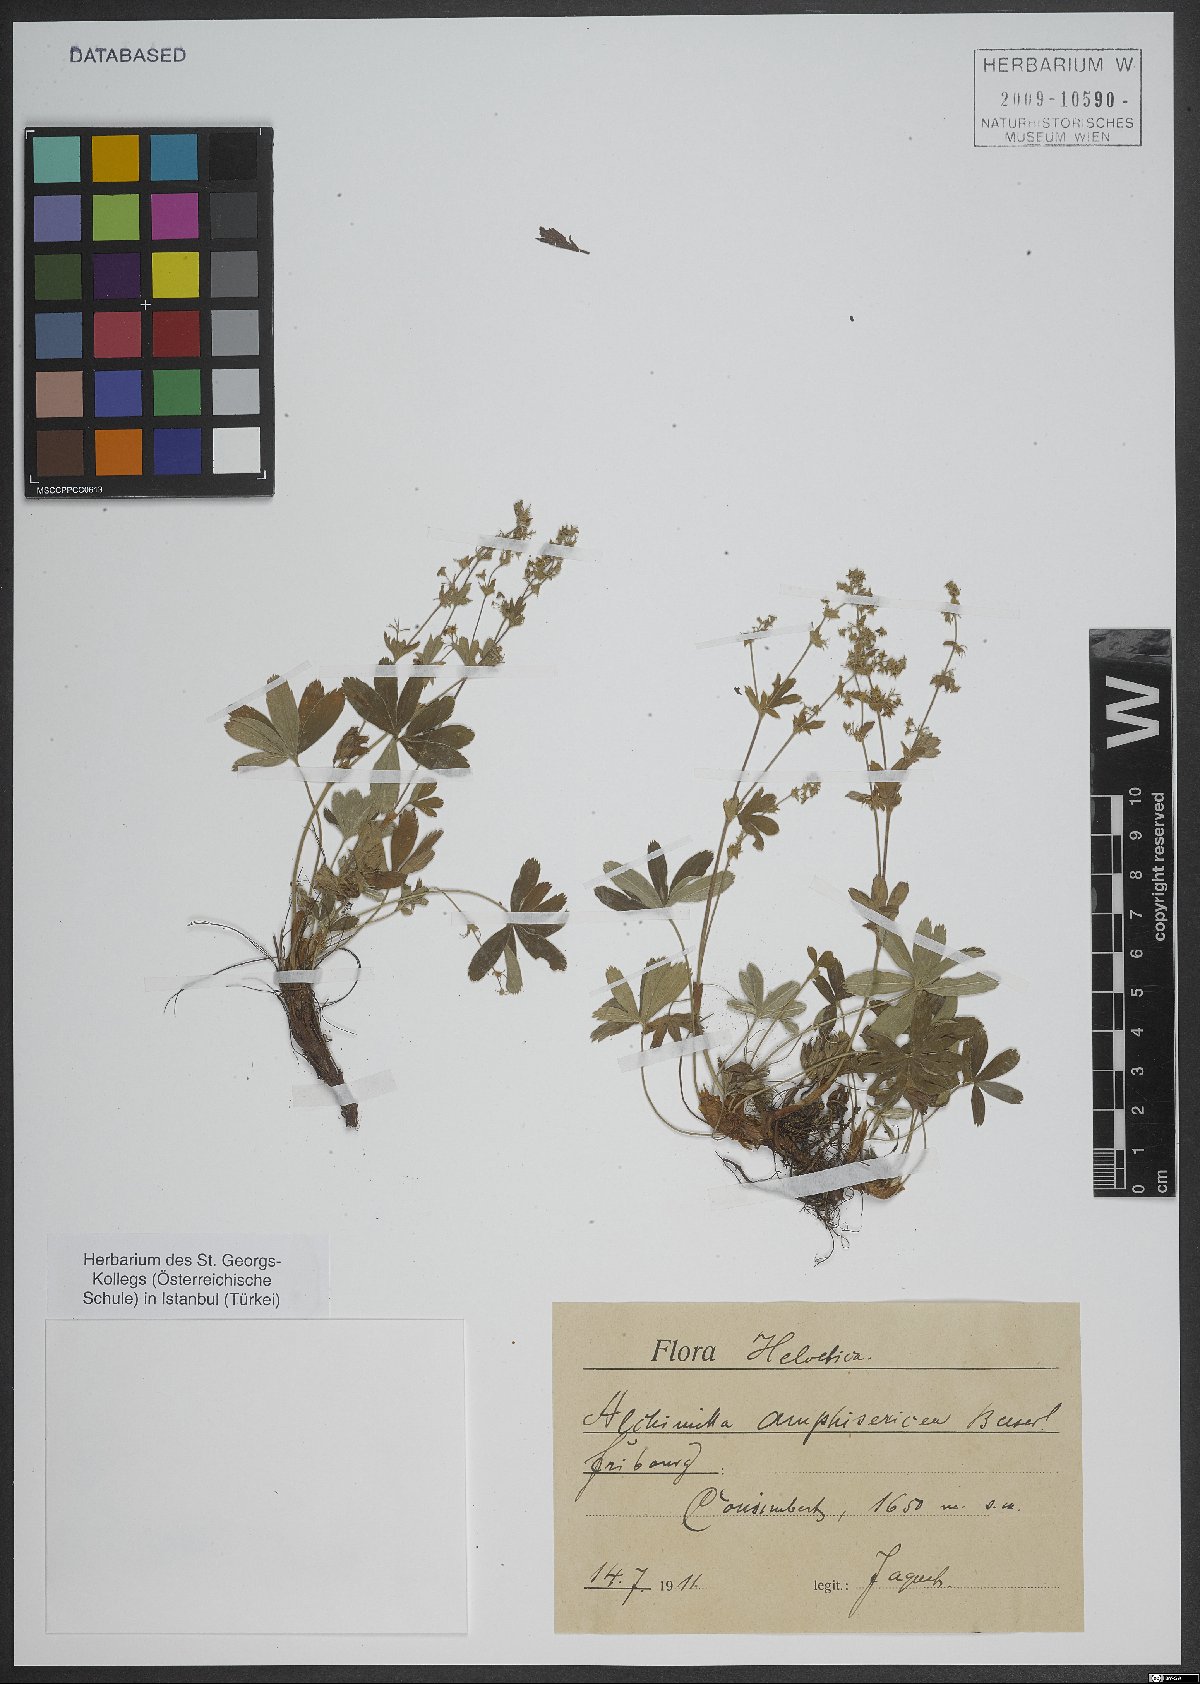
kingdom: Plantae
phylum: Tracheophyta
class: Magnoliopsida
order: Caryophyllales
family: Caryophyllaceae
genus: Minuartia
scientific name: Minuartia
